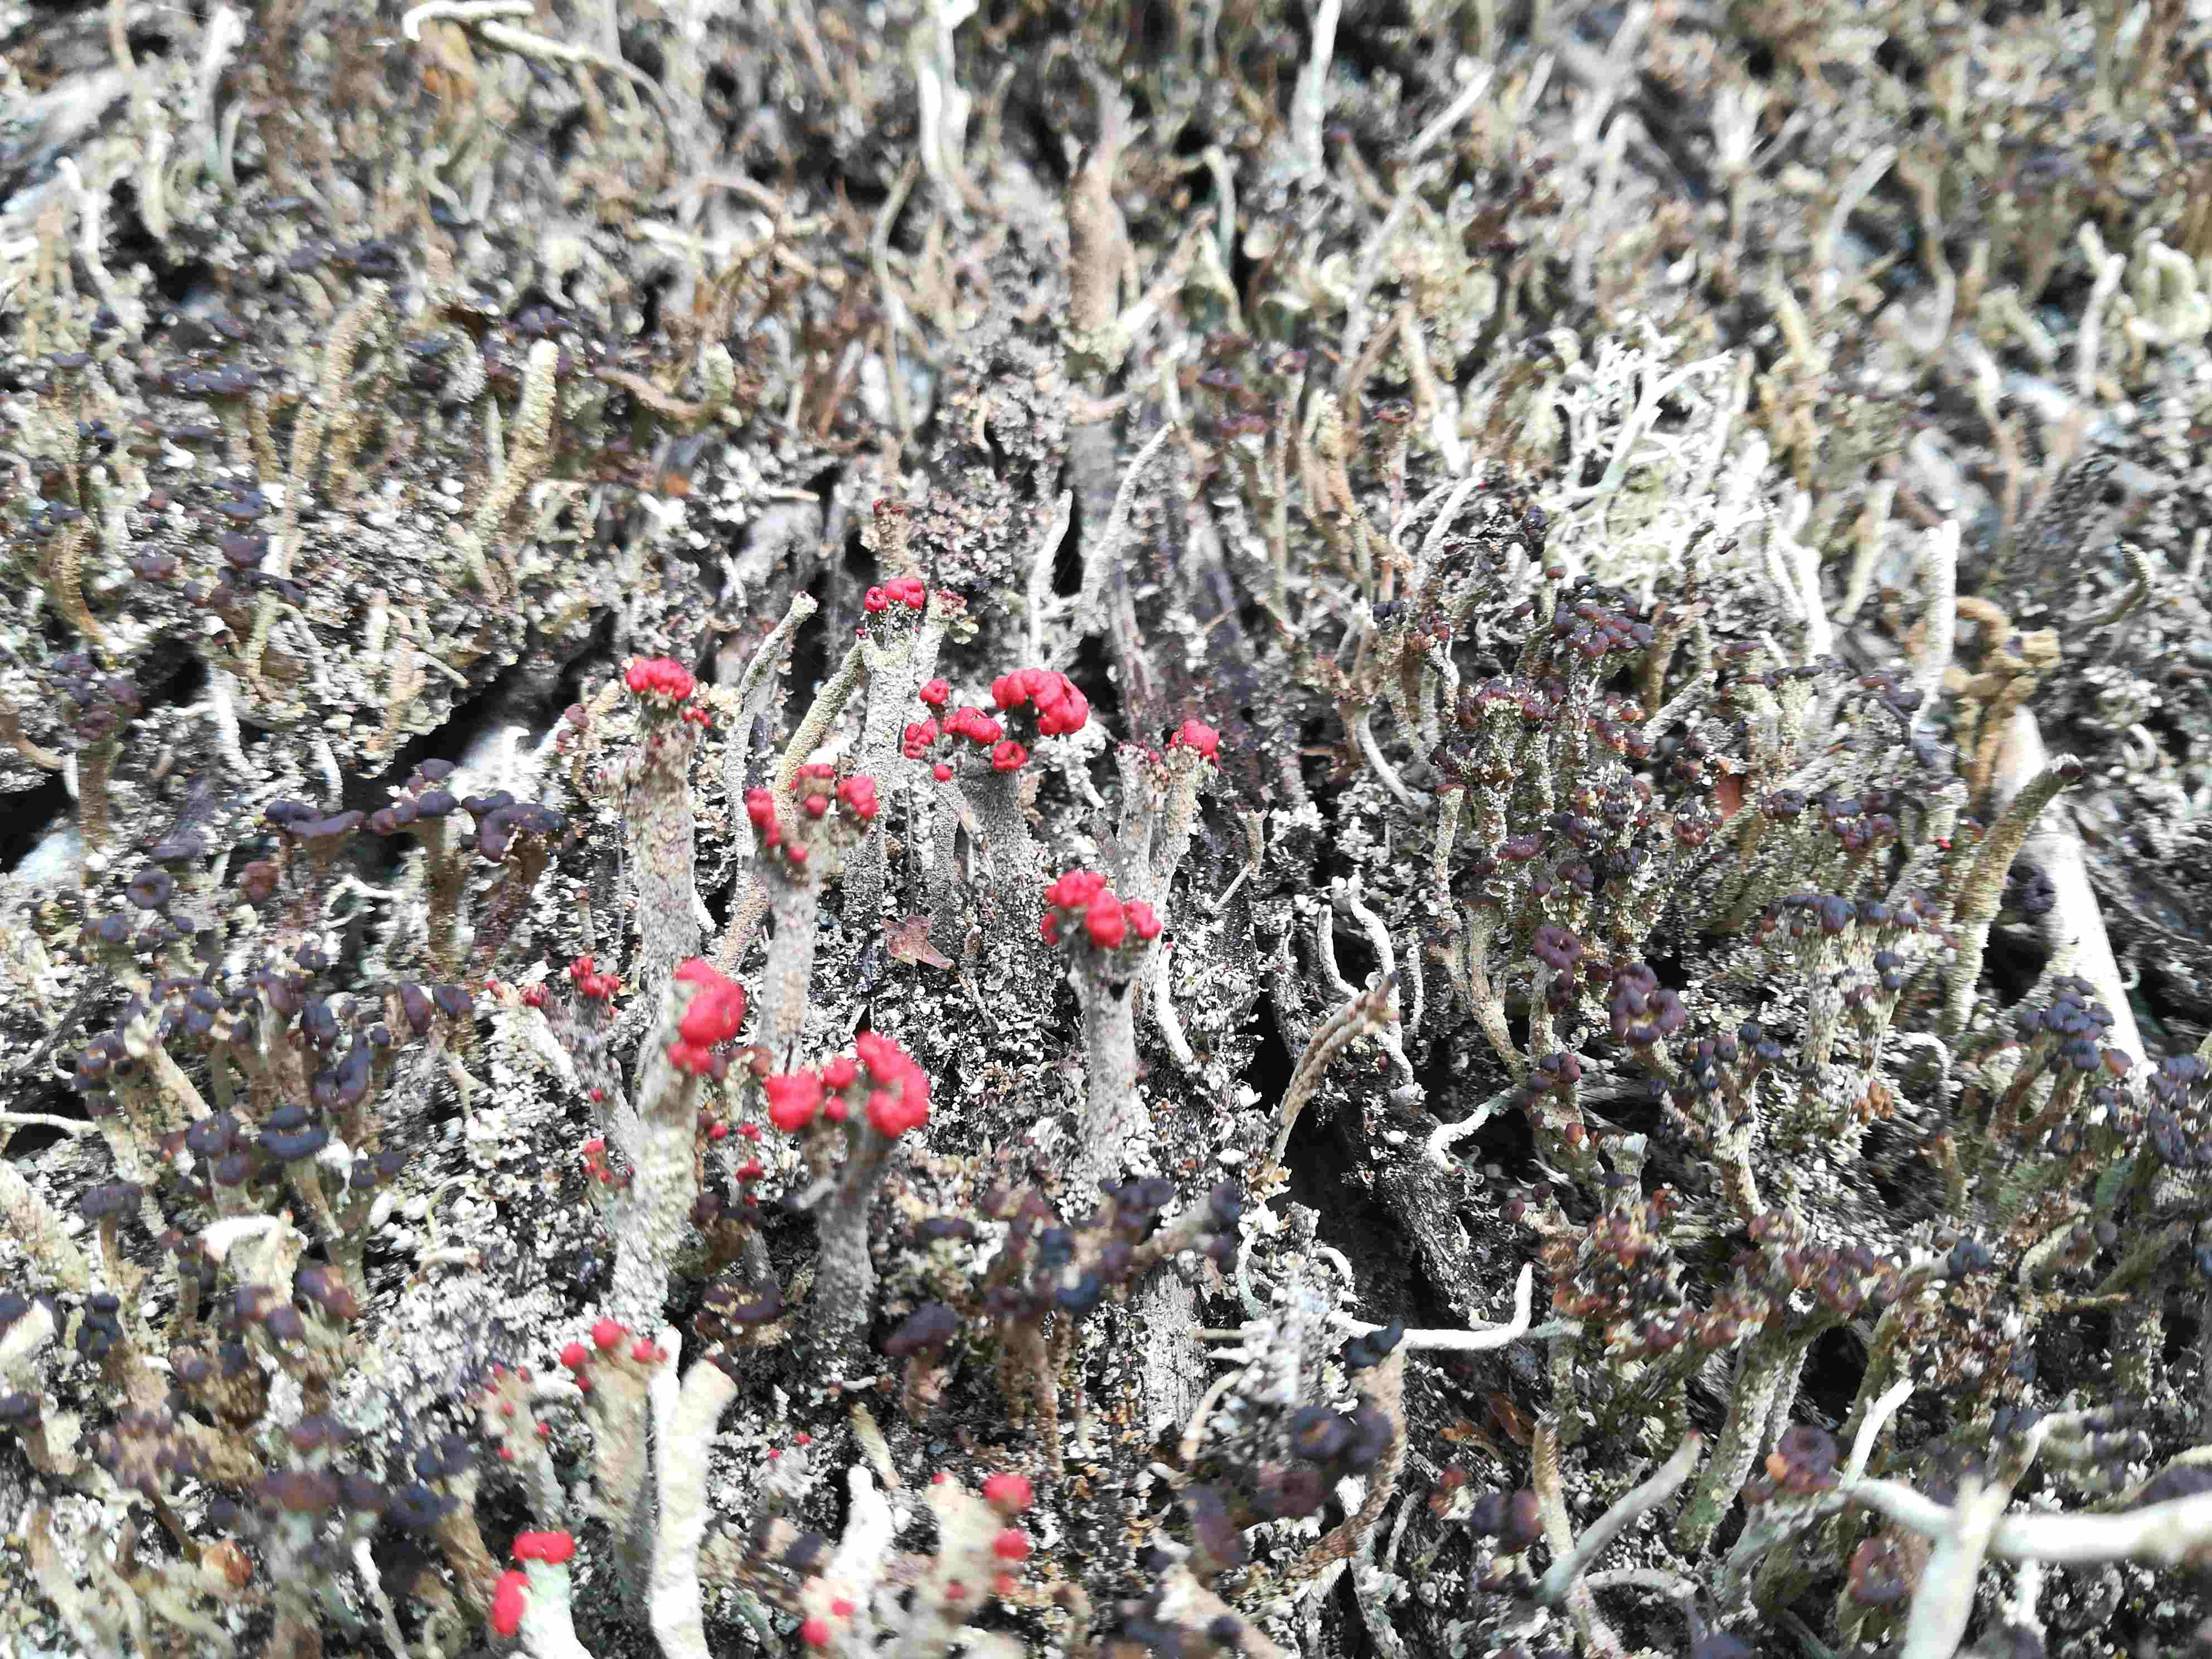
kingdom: Fungi
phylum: Ascomycota
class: Lecanoromycetes
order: Lecanorales
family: Cladoniaceae
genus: Cladonia
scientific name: Cladonia floerkeana
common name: lakrød bægerlav
